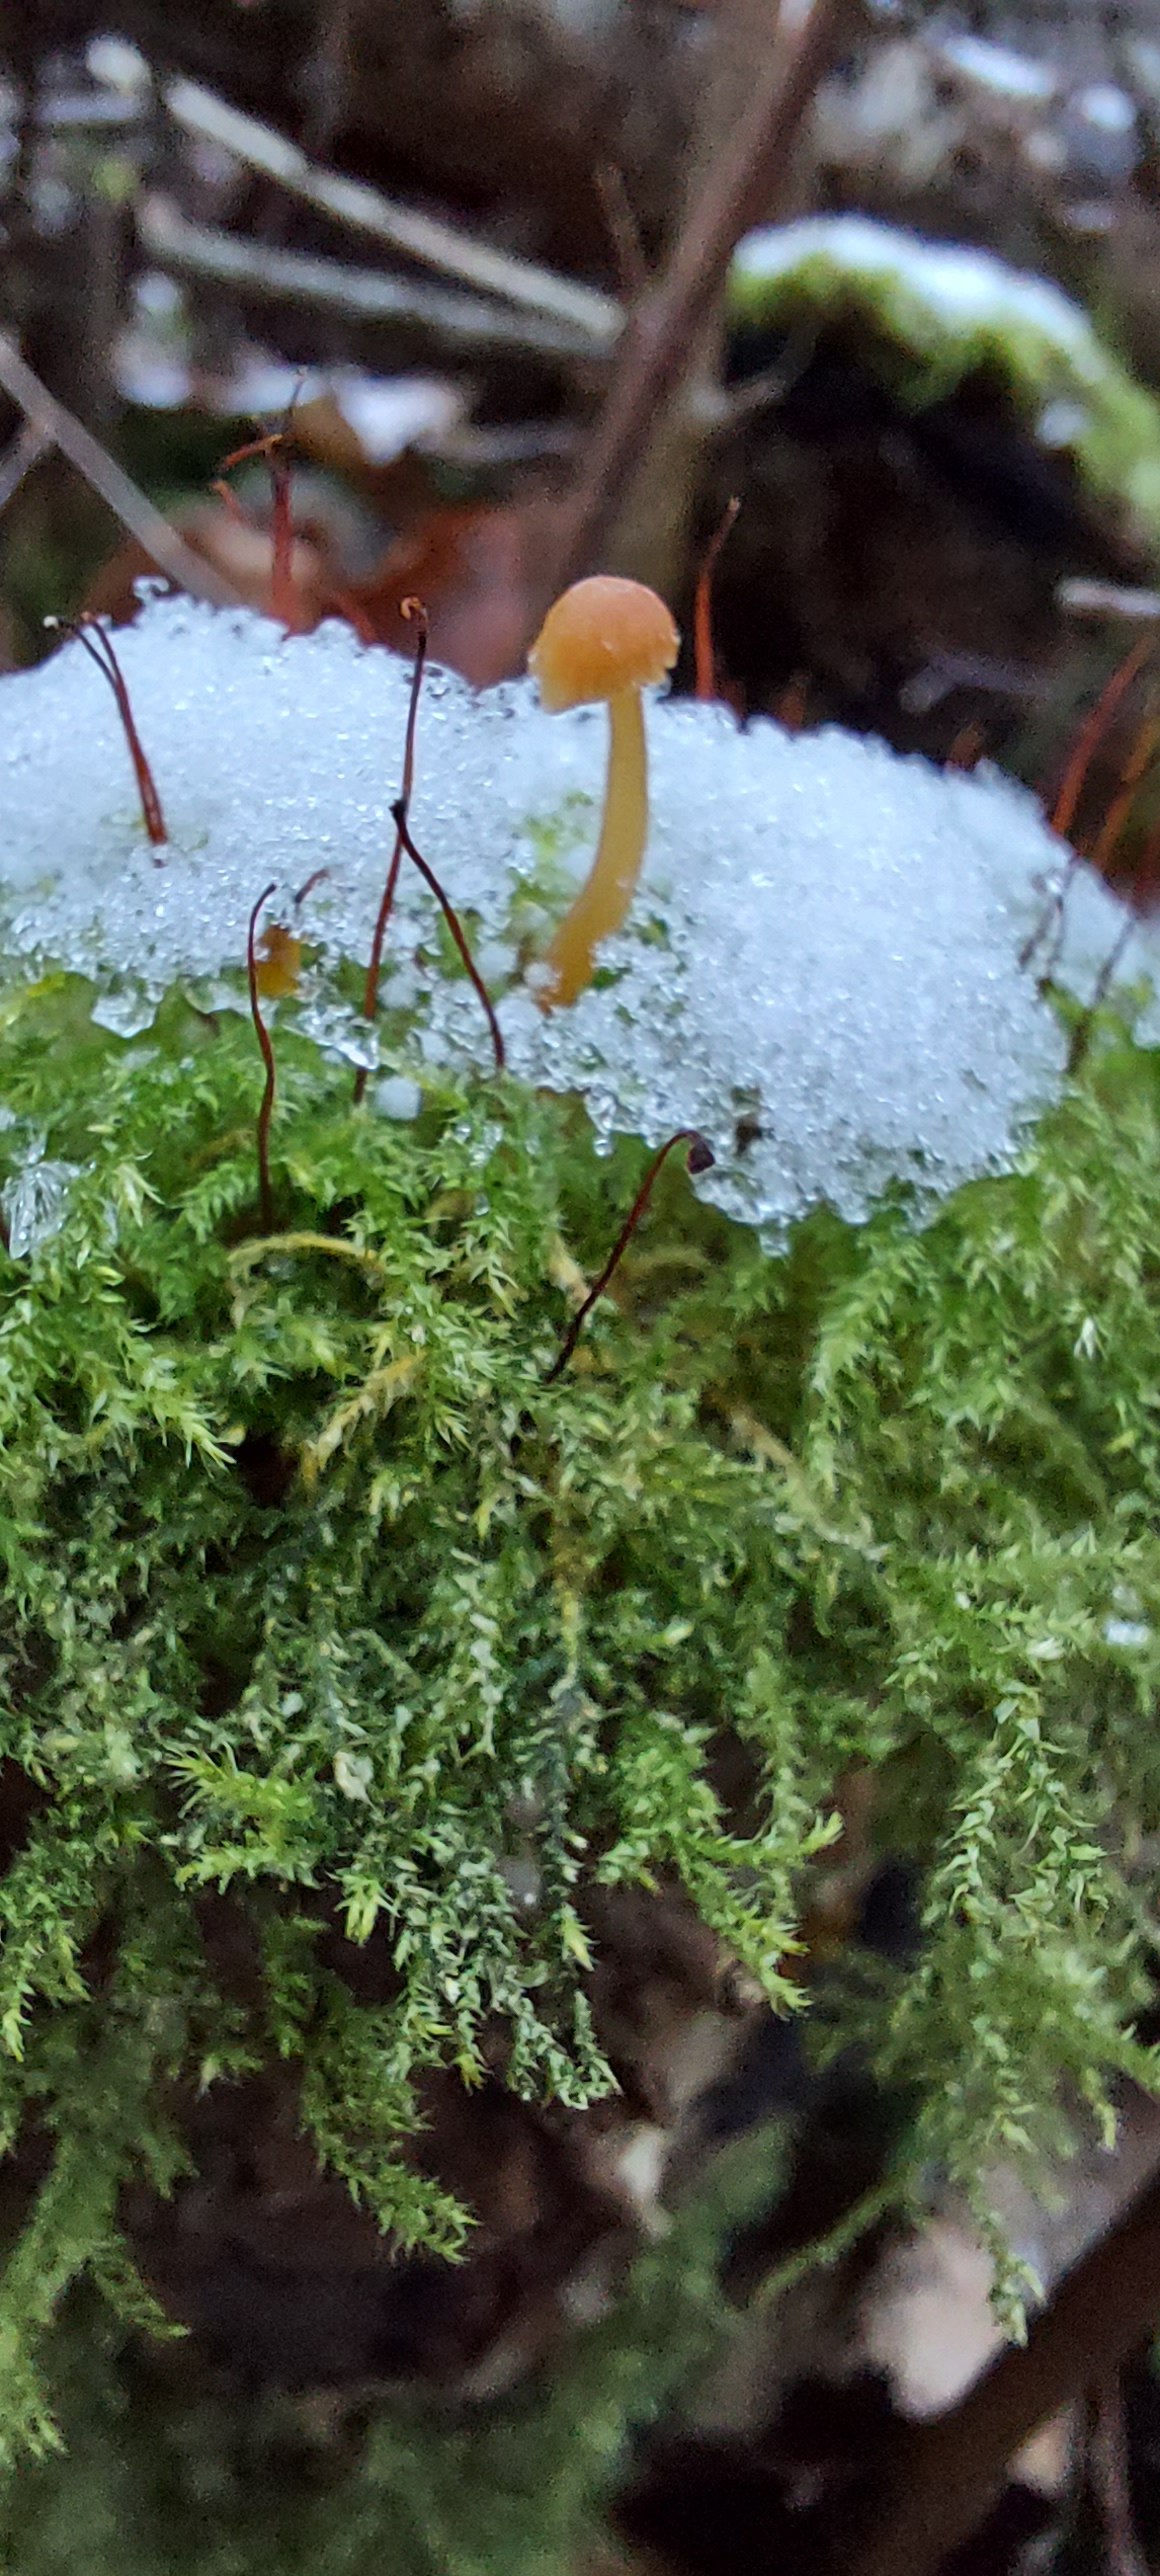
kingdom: Fungi
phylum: Basidiomycota
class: Agaricomycetes
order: Agaricales
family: Hymenogastraceae
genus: Galerina
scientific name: Galerina
